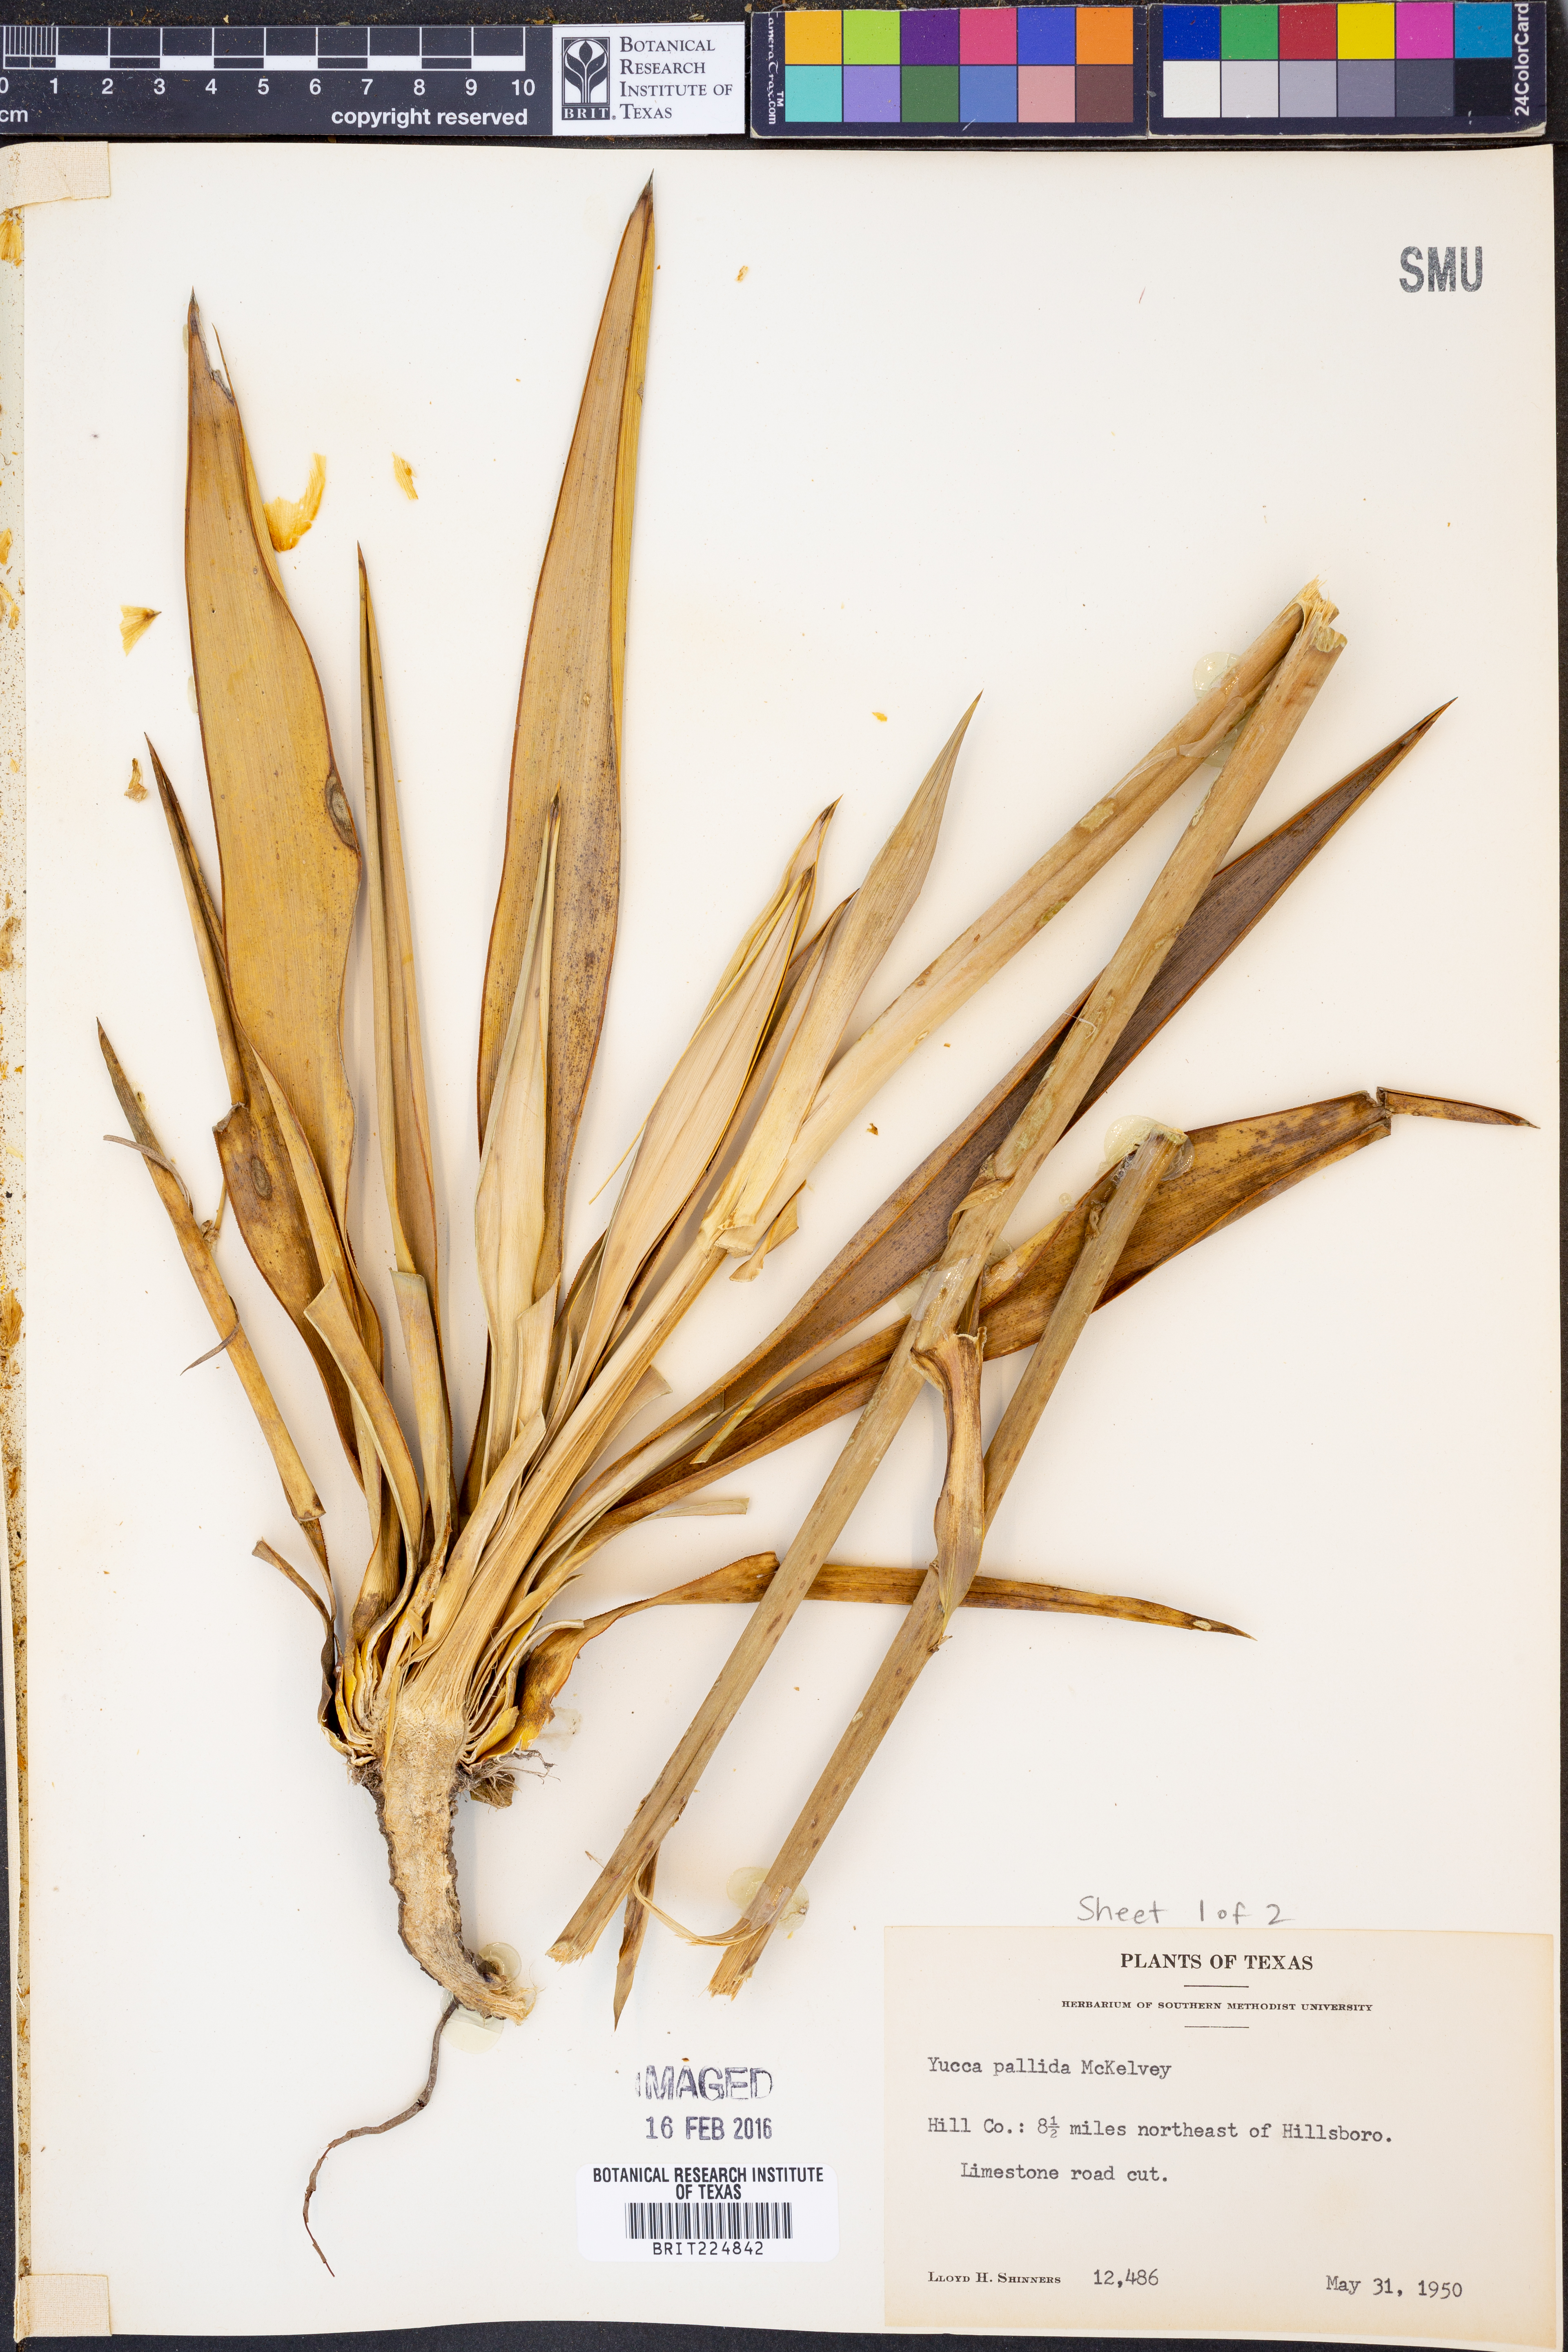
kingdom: Plantae
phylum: Tracheophyta
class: Liliopsida
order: Asparagales
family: Asparagaceae
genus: Yucca
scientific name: Yucca pallida
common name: Pale leaf yucca
